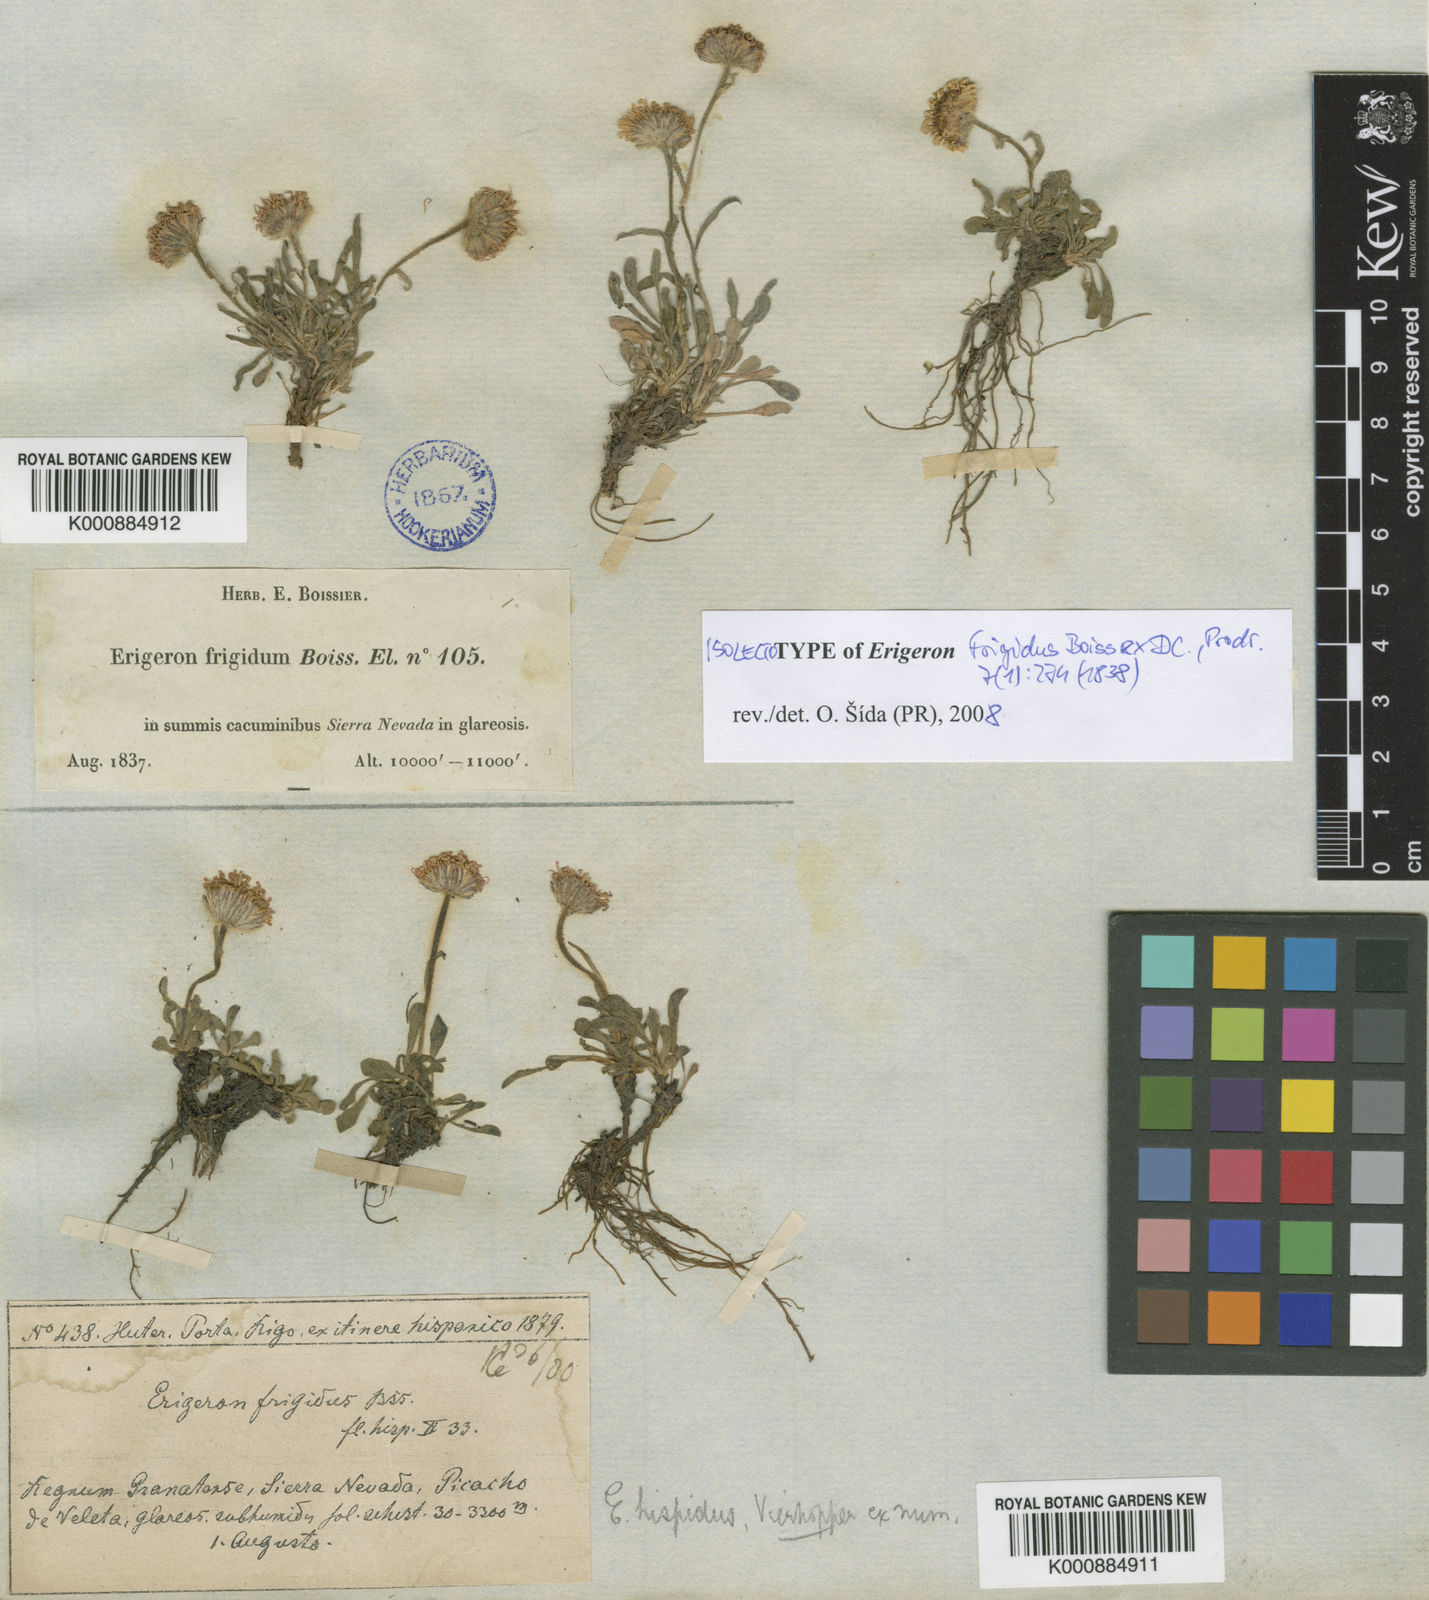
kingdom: Plantae
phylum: Tracheophyta
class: Magnoliopsida
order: Asterales
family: Asteraceae
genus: Erigeron
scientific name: Erigeron frigidus
